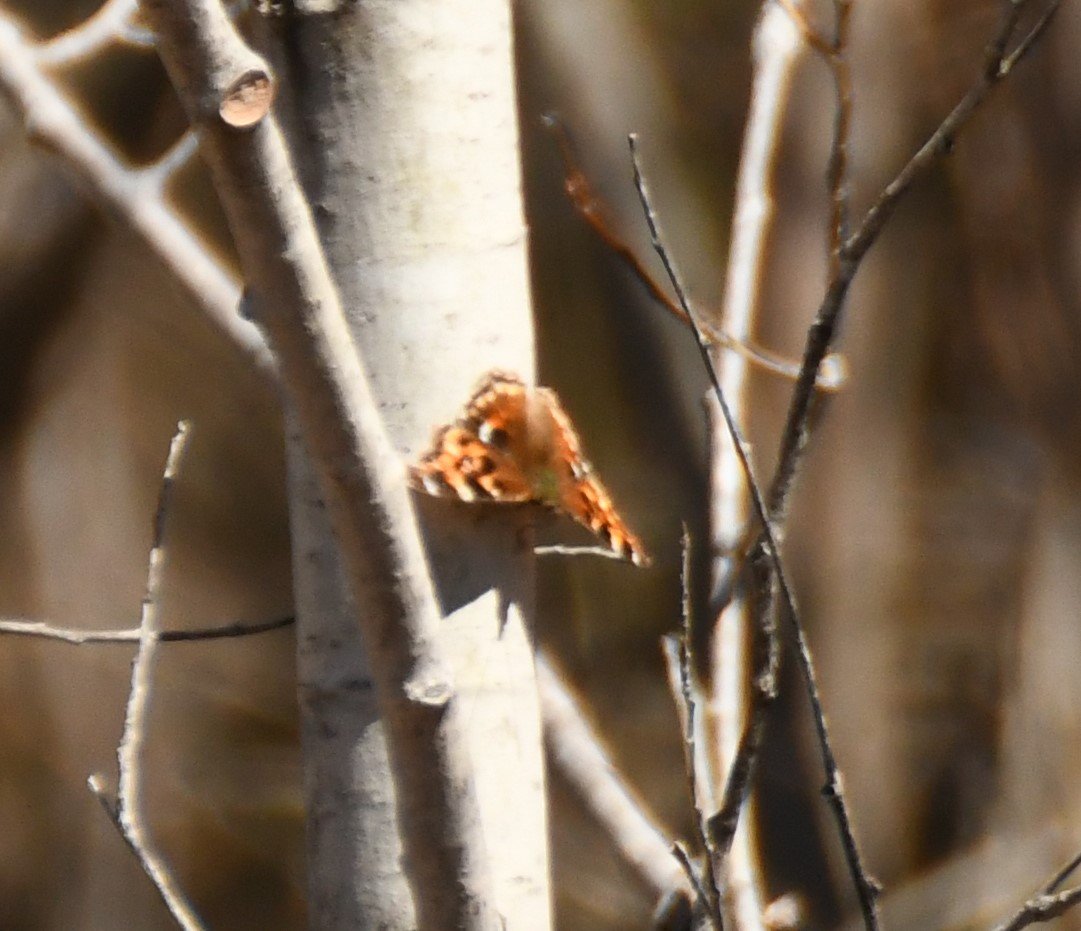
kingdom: Animalia
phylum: Arthropoda
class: Insecta
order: Lepidoptera
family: Nymphalidae
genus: Polygonia
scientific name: Polygonia vaualbum
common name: Compton Tortoiseshell
